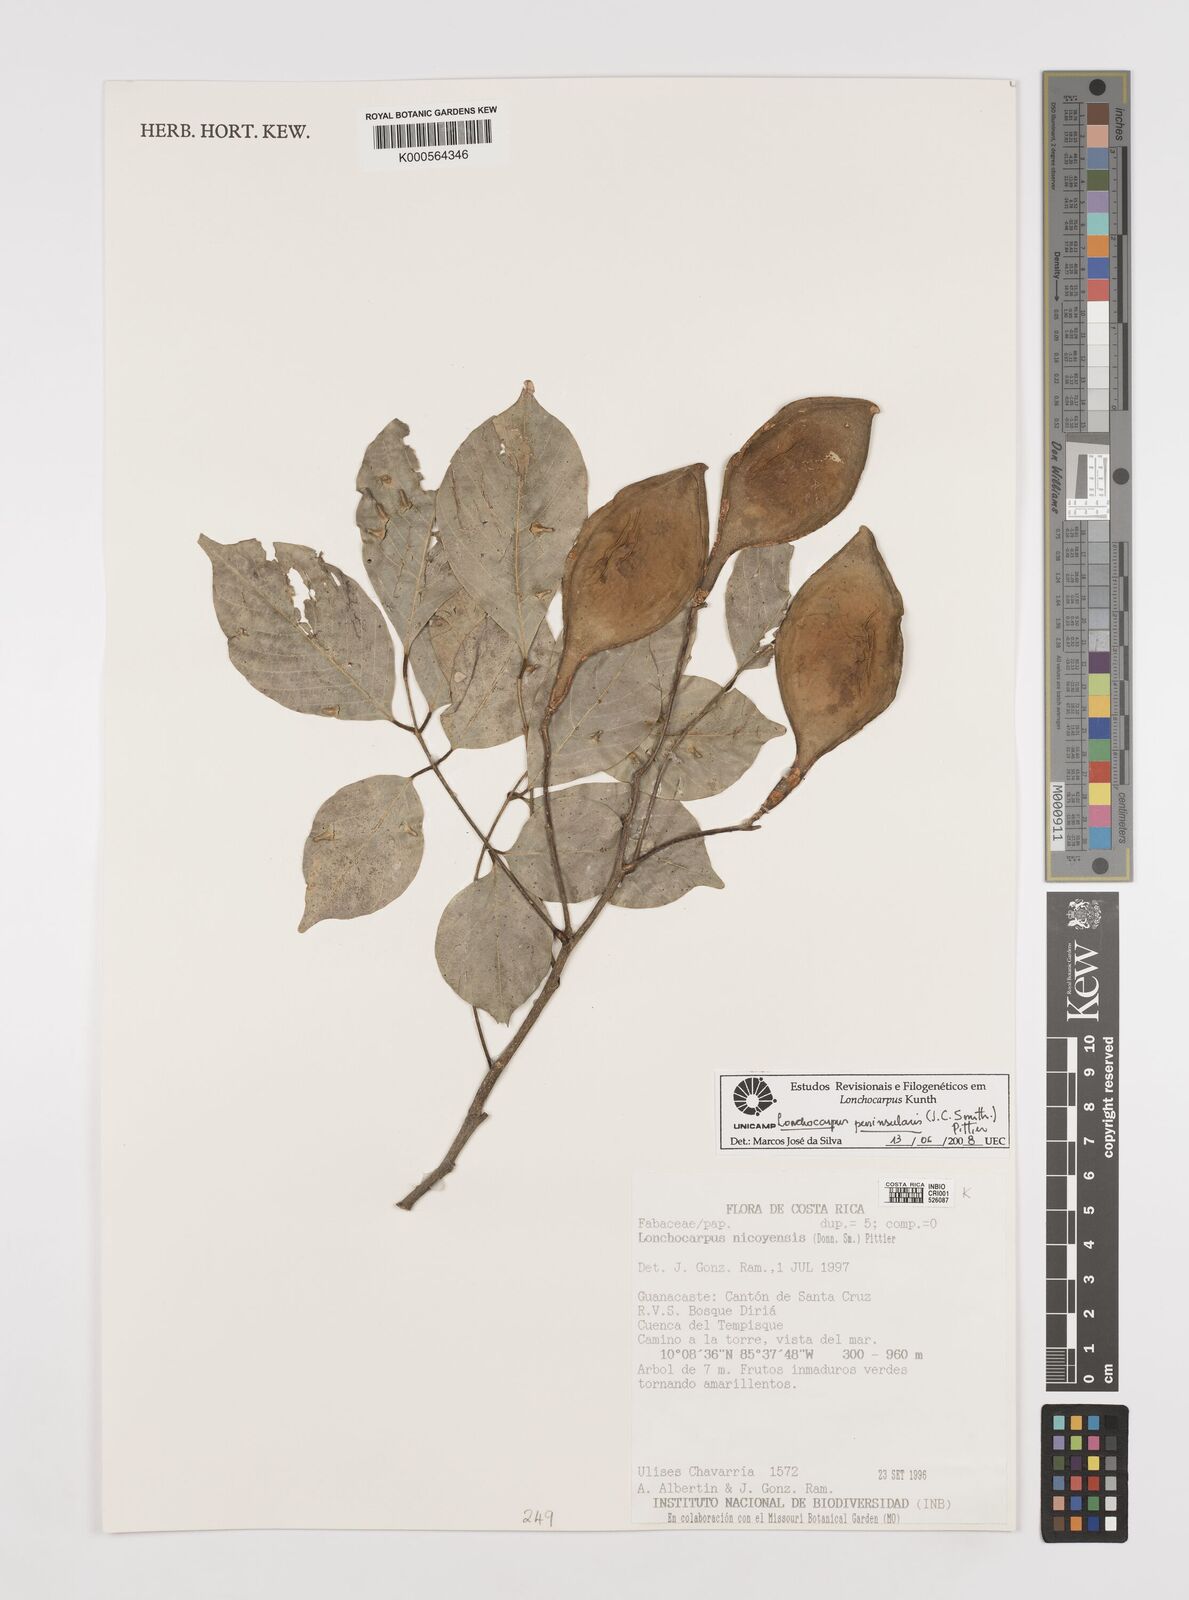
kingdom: Plantae
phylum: Tracheophyta
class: Magnoliopsida
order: Fabales
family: Fabaceae
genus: Lonchocarpus
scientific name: Lonchocarpus acuminatus
